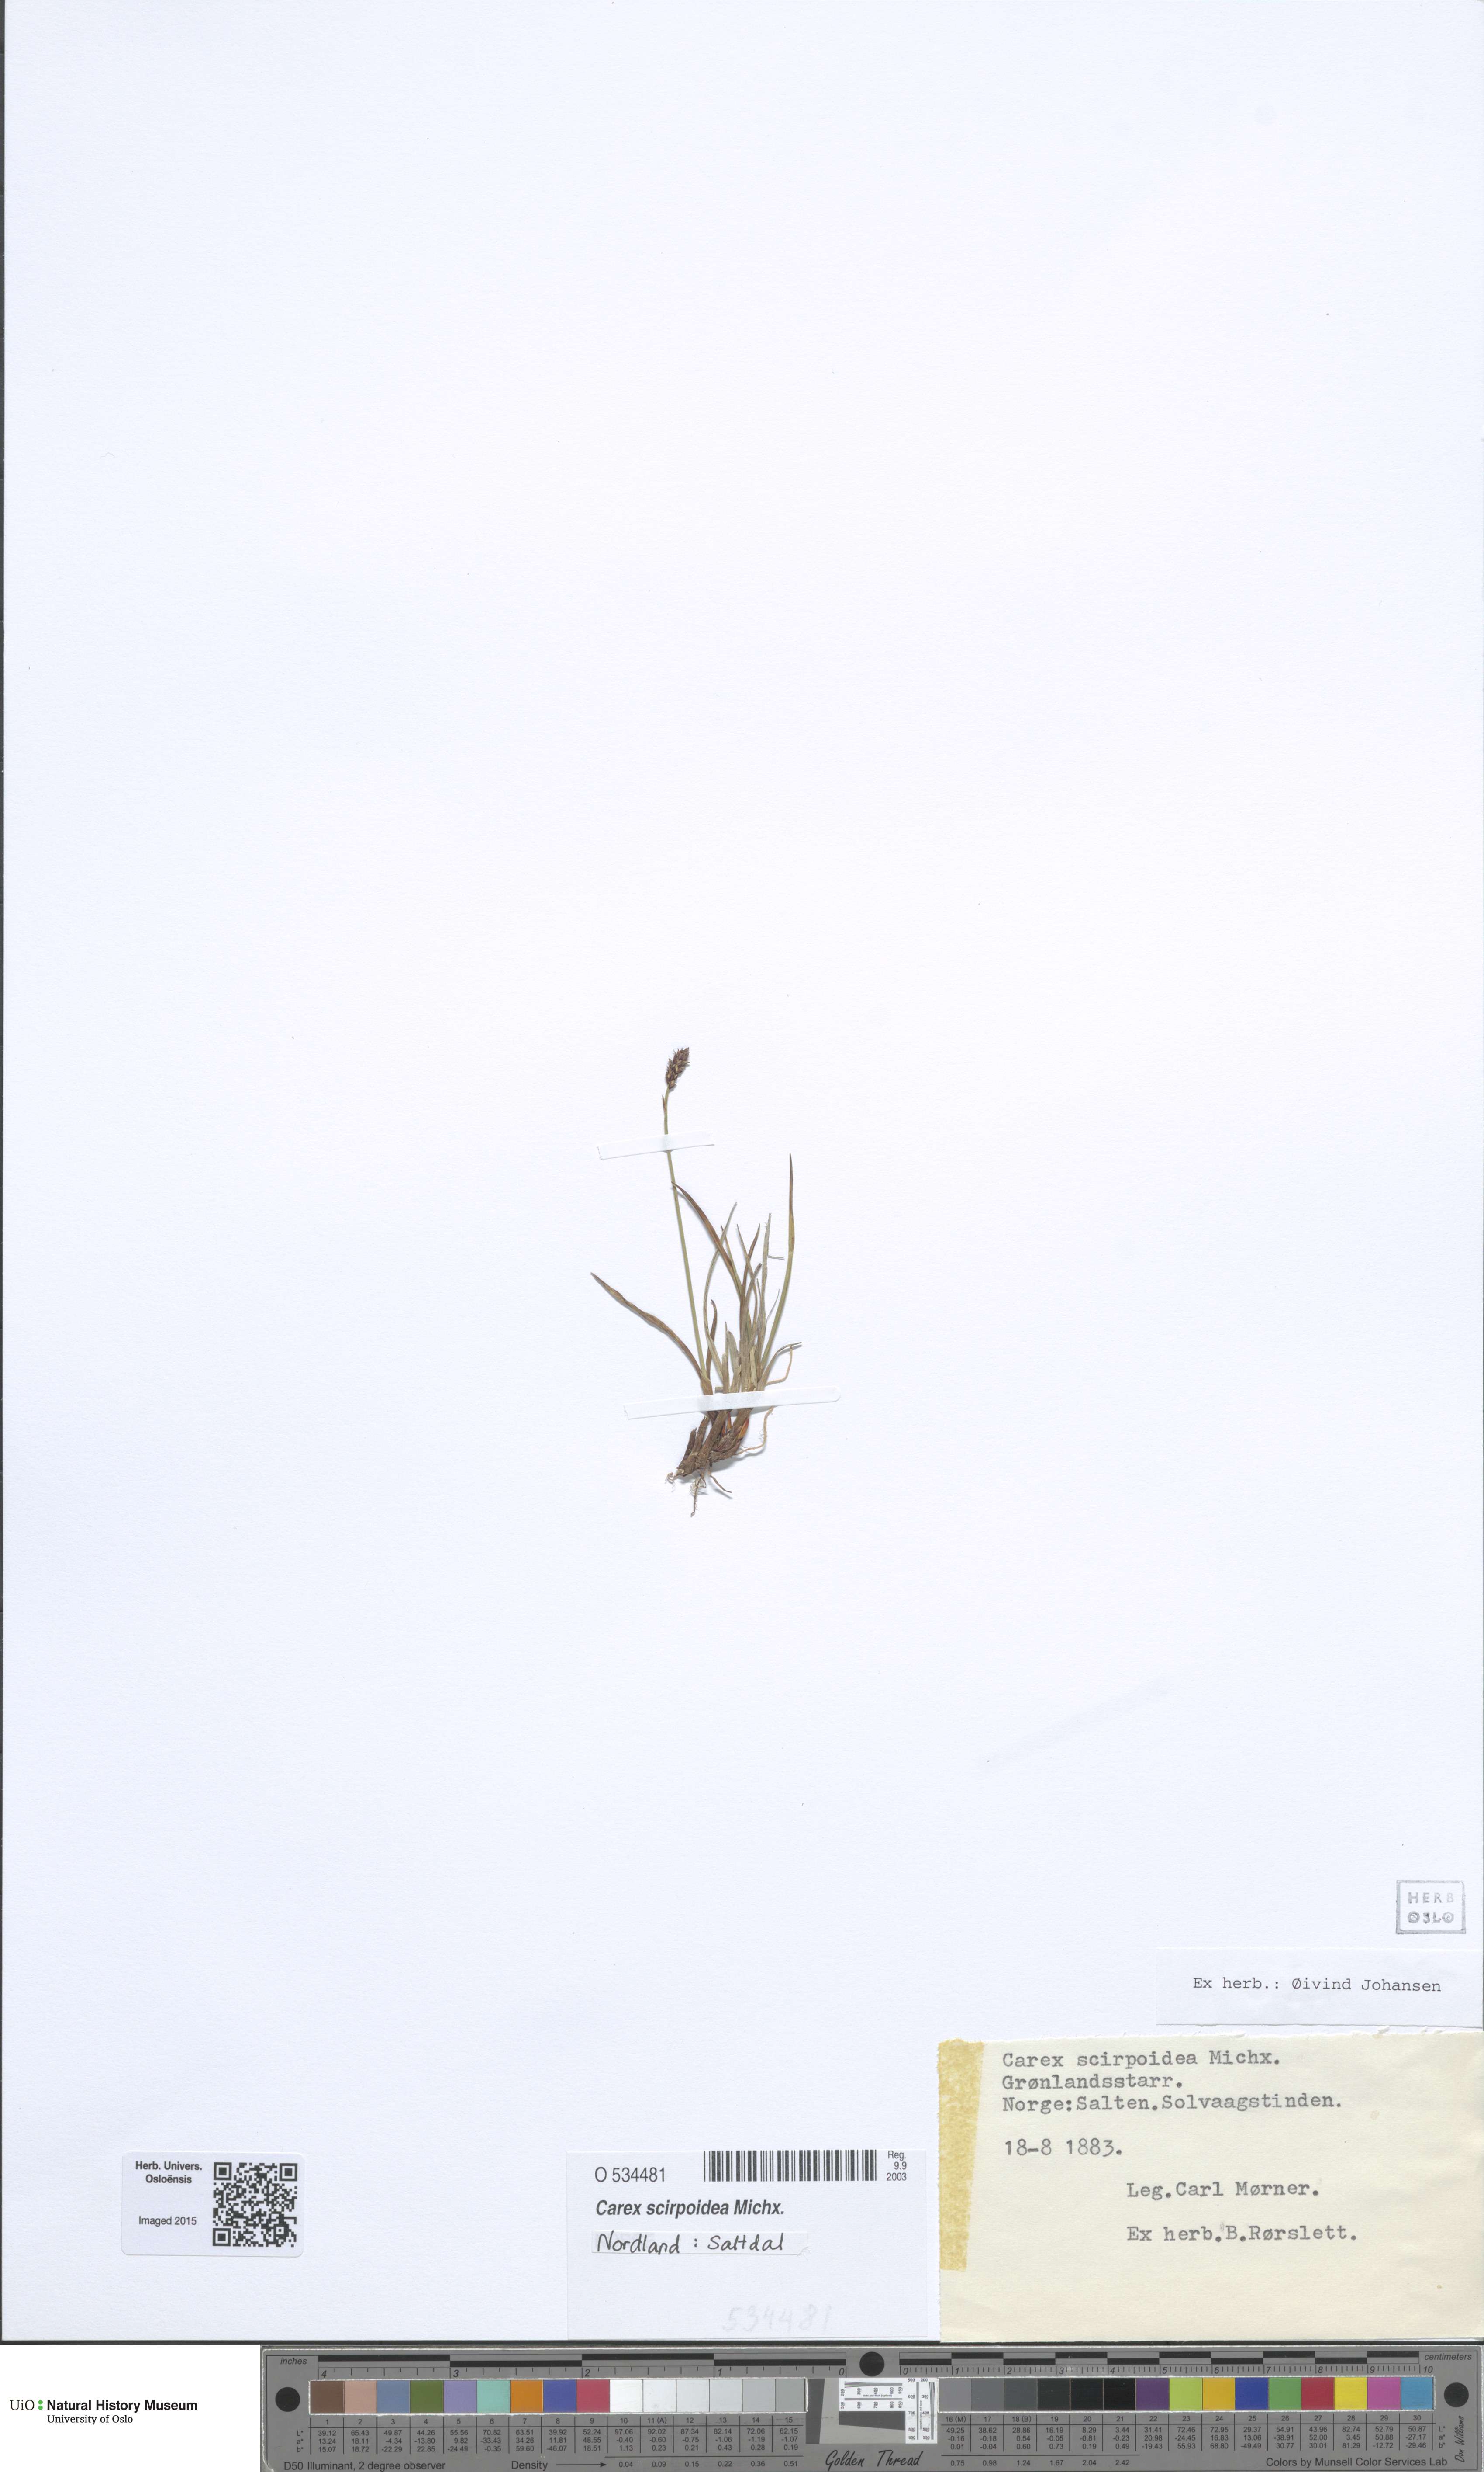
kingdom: Plantae
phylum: Tracheophyta
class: Liliopsida
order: Poales
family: Cyperaceae
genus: Carex
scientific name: Carex scirpoidea
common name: Canada single-spike sedge
